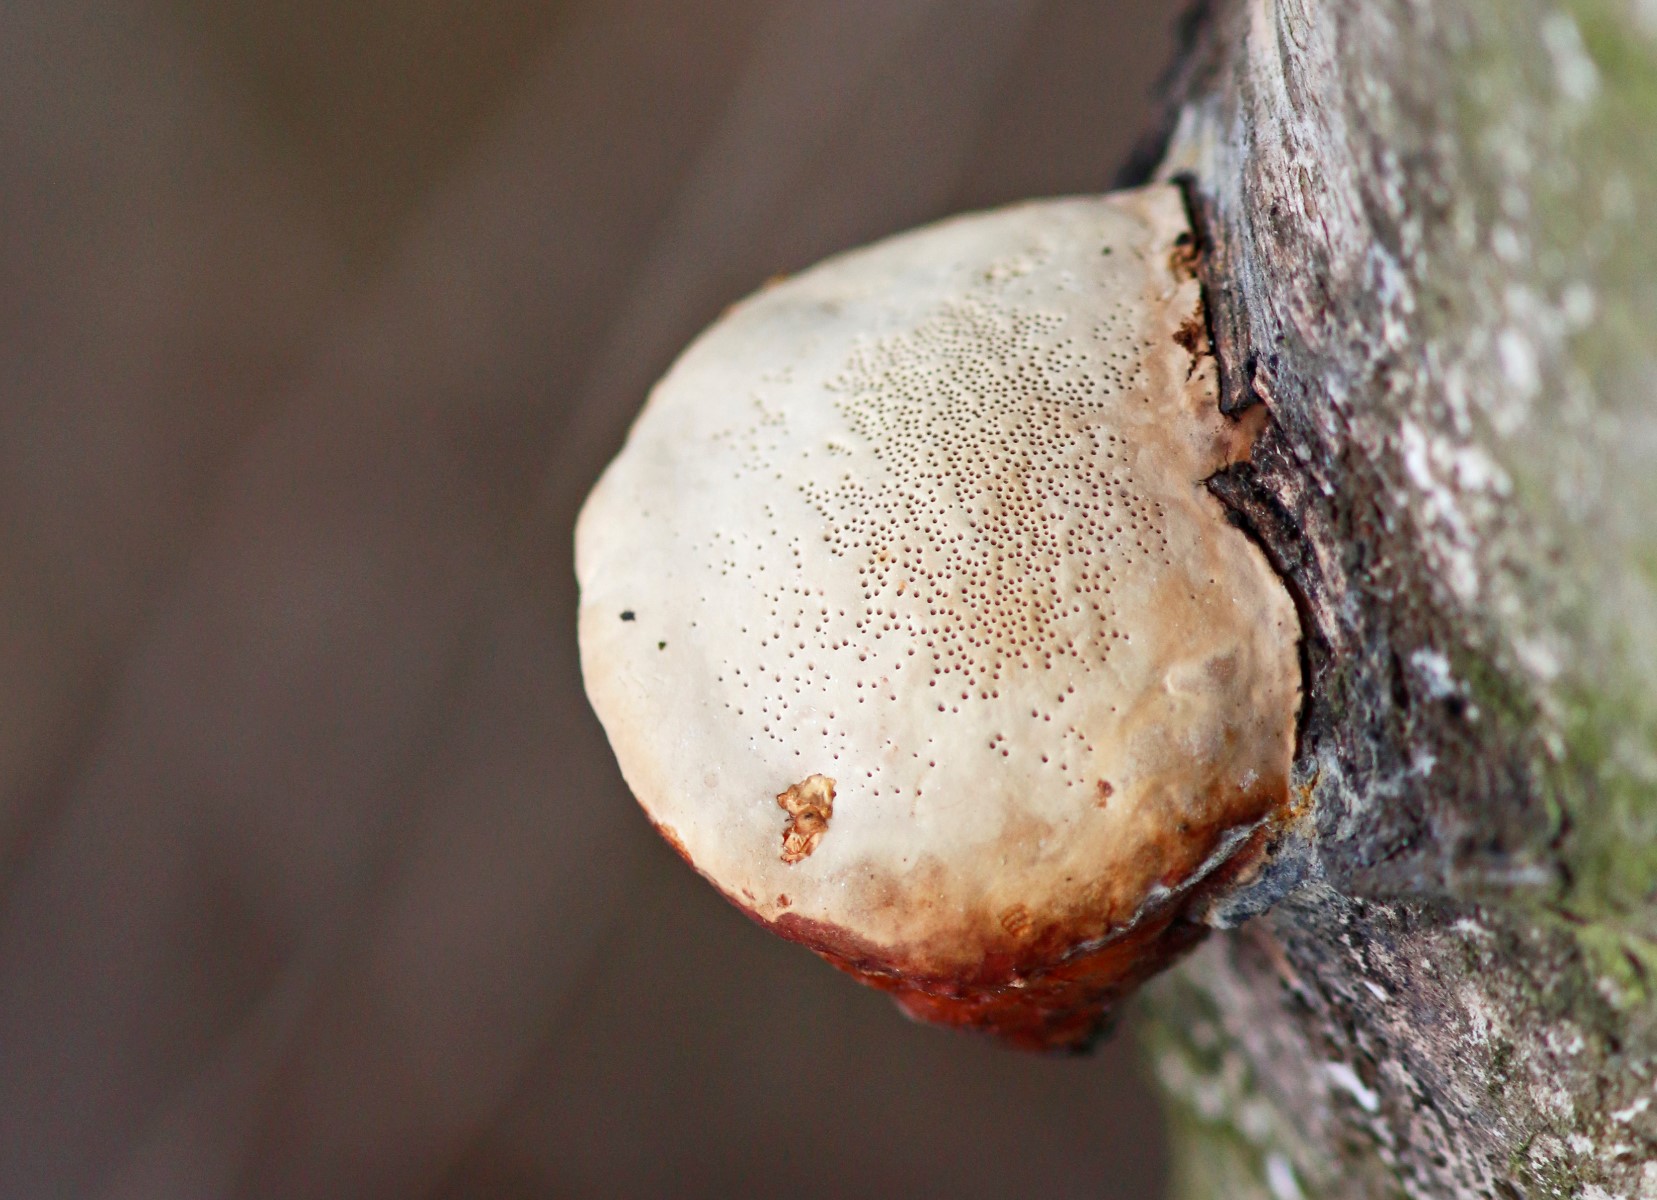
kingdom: Fungi
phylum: Basidiomycota
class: Agaricomycetes
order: Polyporales
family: Fomitopsidaceae
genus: Fomitopsis
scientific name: Fomitopsis pinicola
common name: randbæltet hovporesvamp
